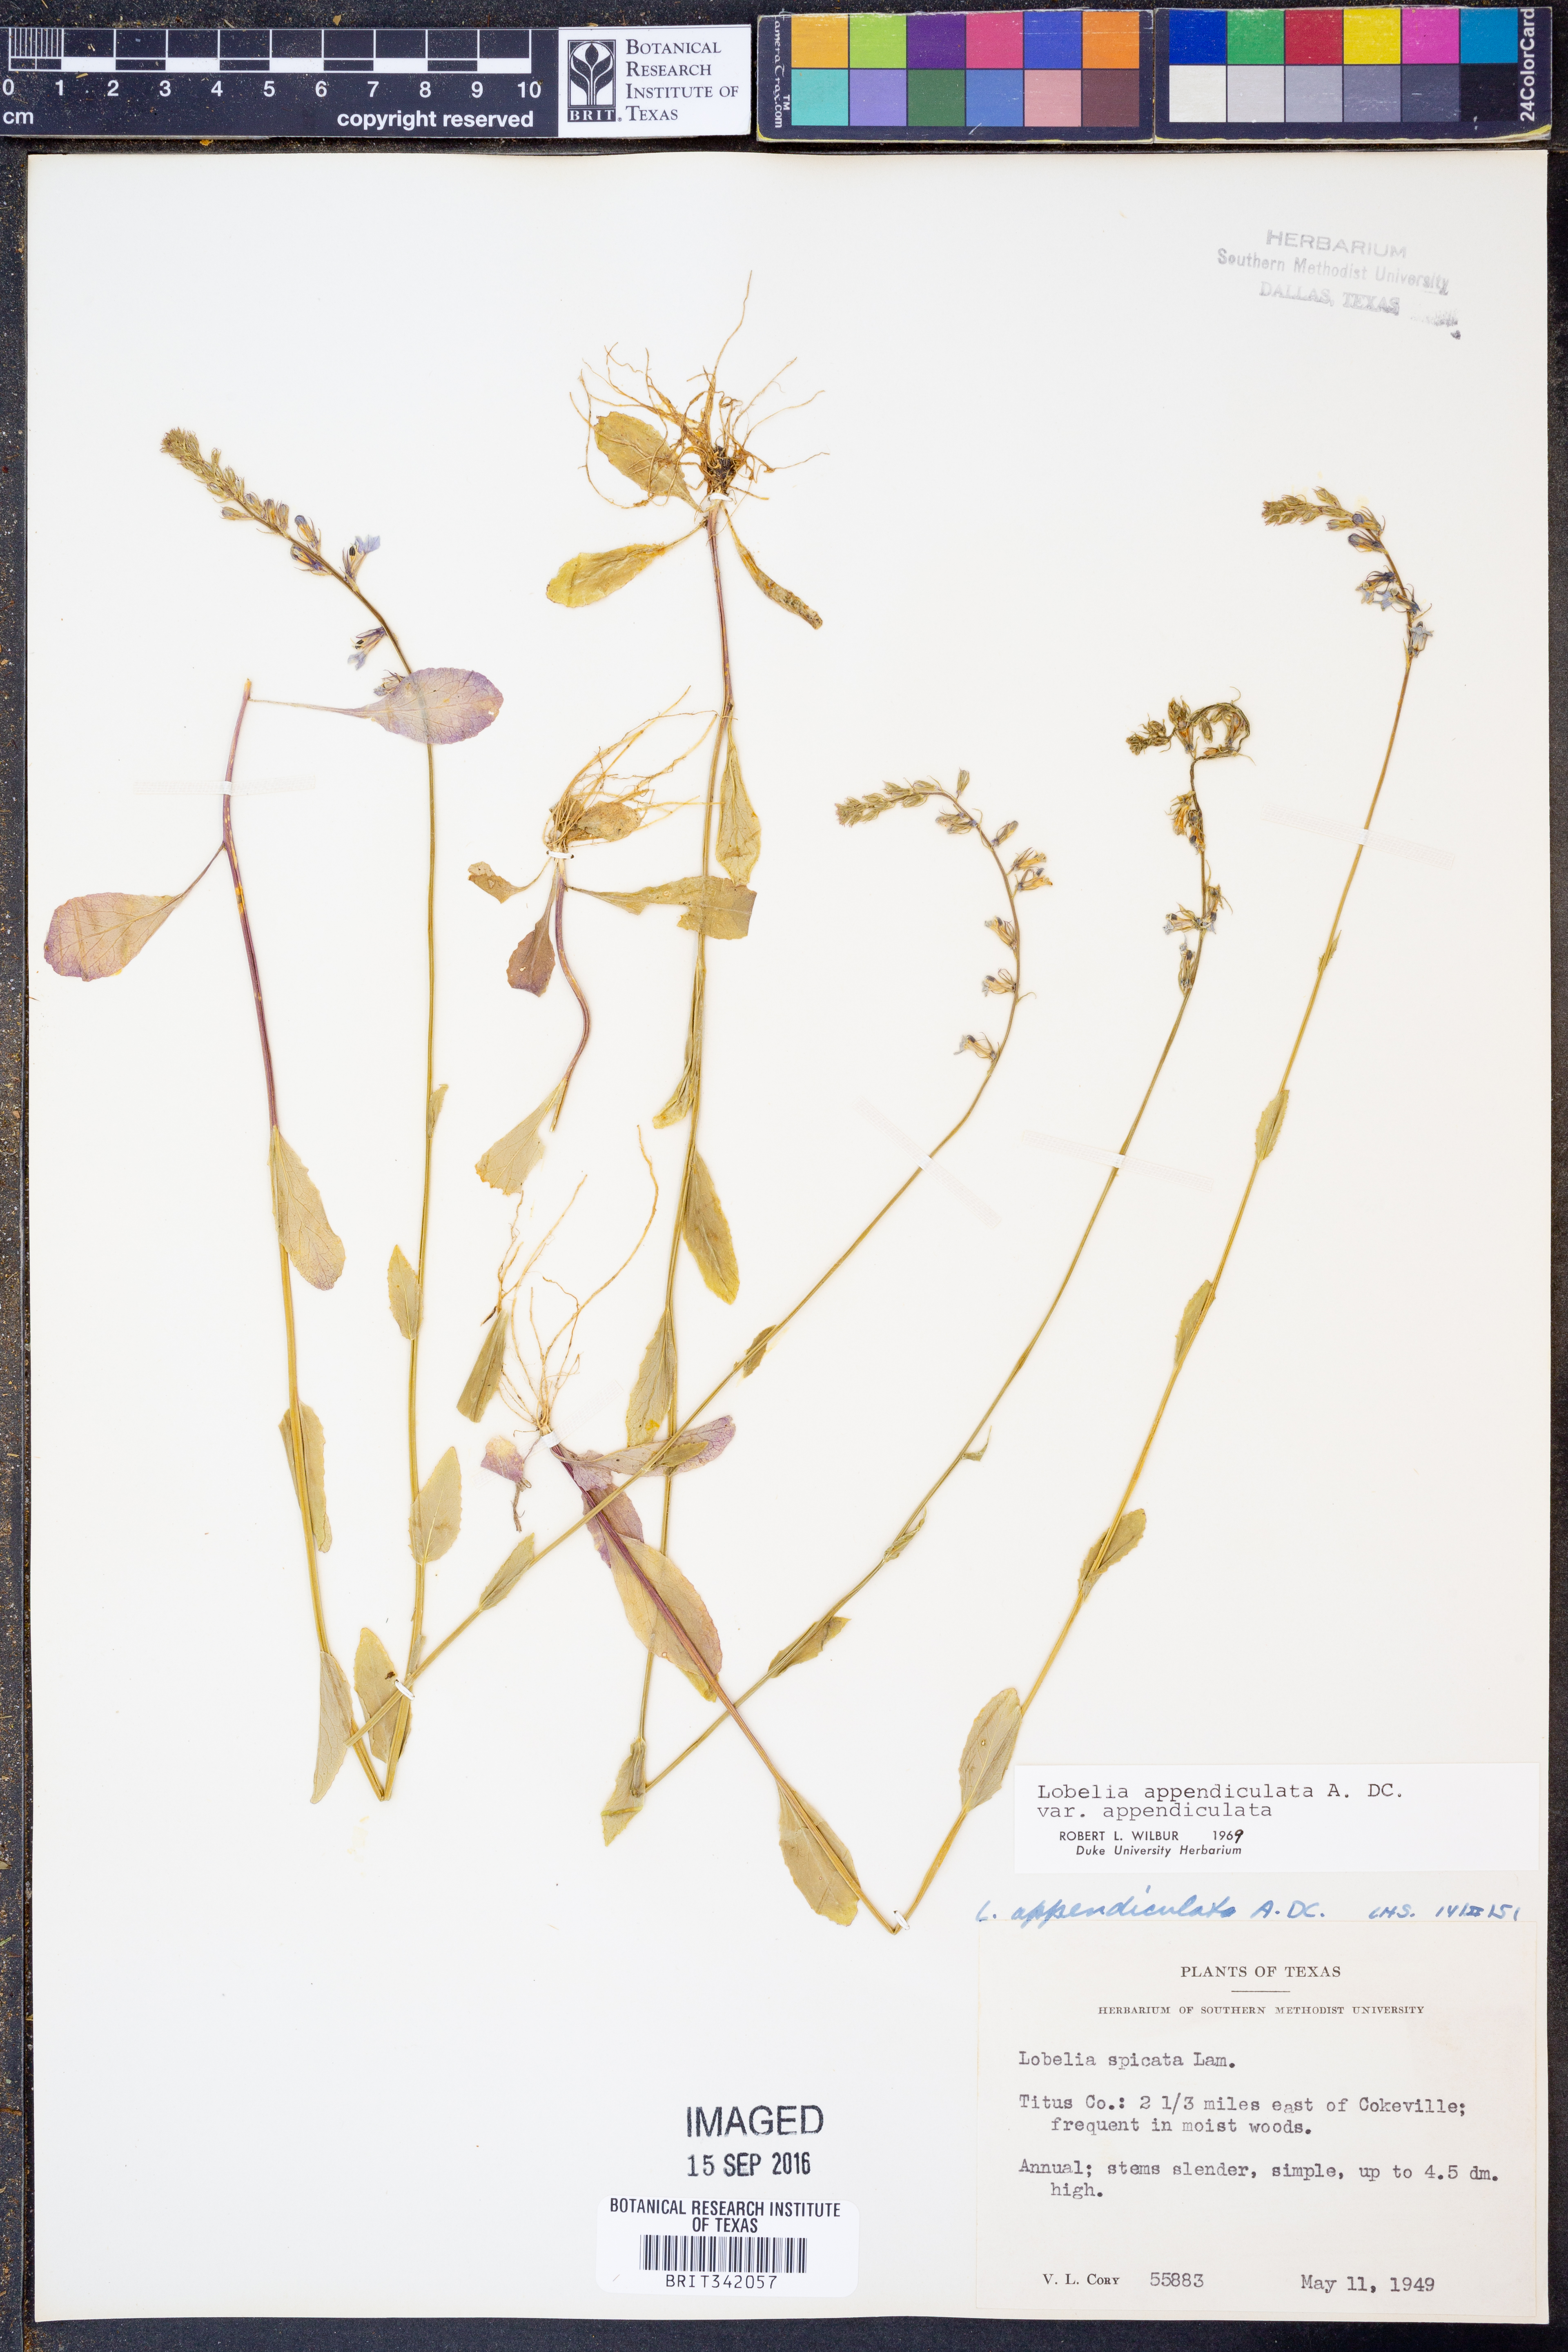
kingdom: Plantae
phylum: Tracheophyta
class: Magnoliopsida
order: Asterales
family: Campanulaceae
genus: Lobelia
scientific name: Lobelia appendiculata
